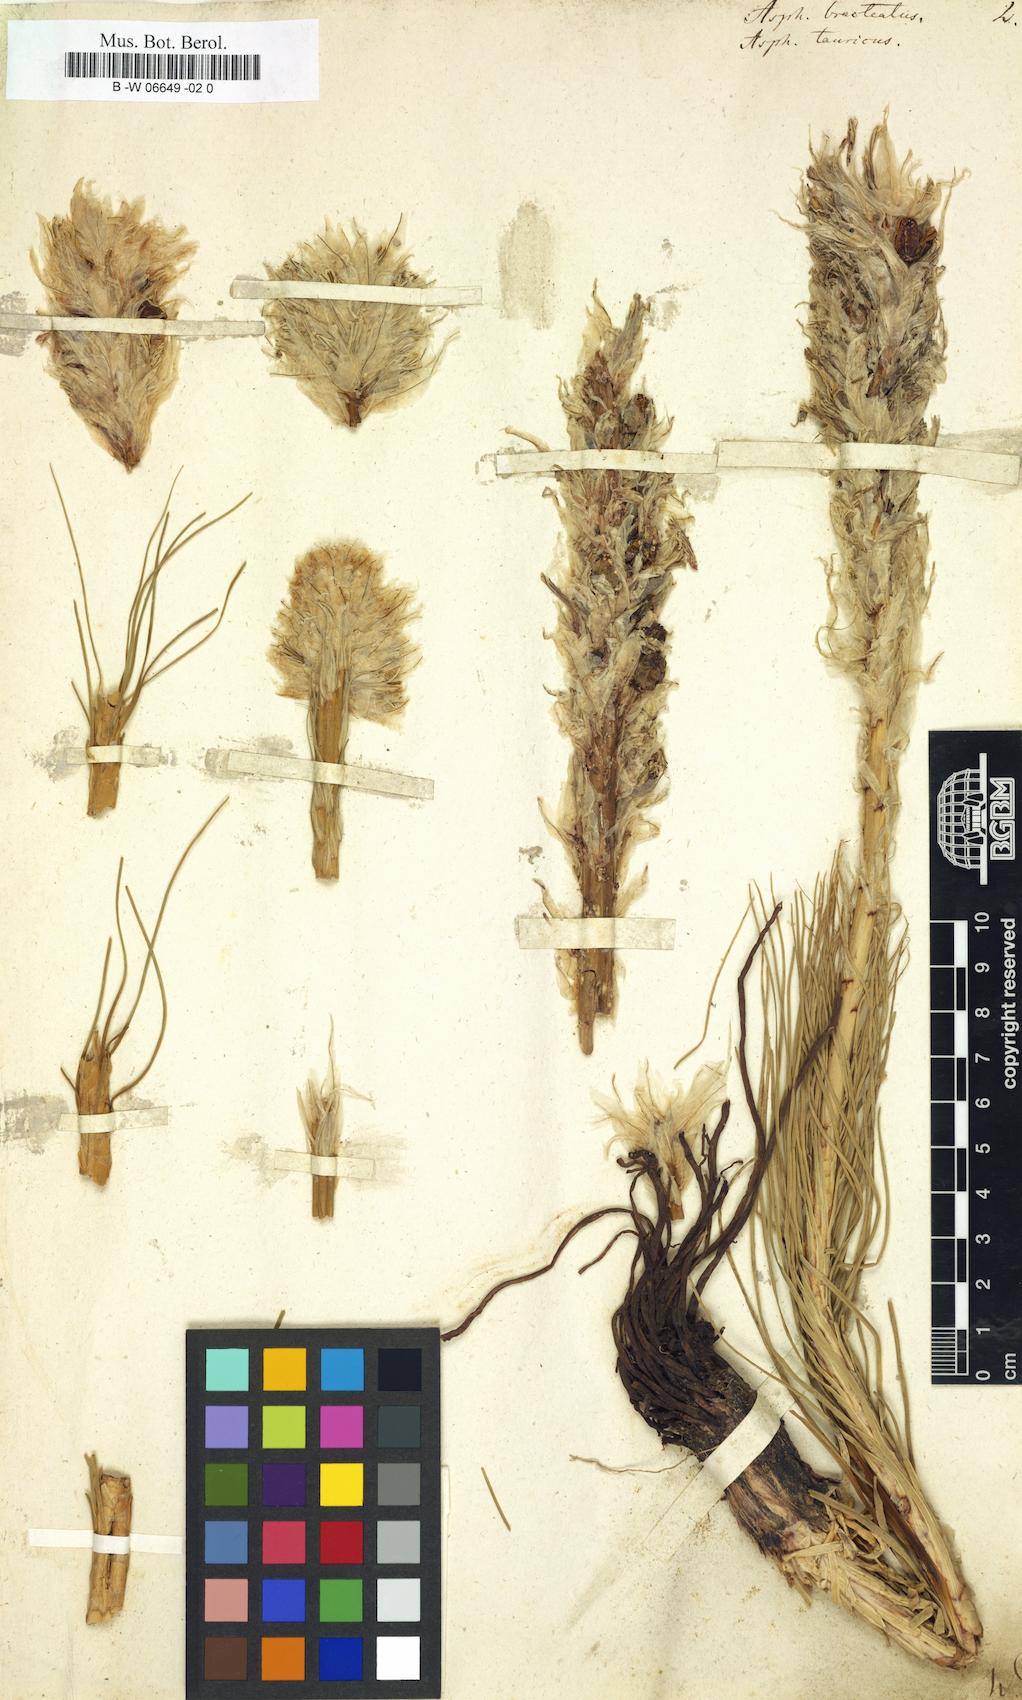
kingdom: Plantae
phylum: Tracheophyta
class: Liliopsida
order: Asparagales
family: Asphodelaceae
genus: Asphodeline
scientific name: Asphodeline taurica
